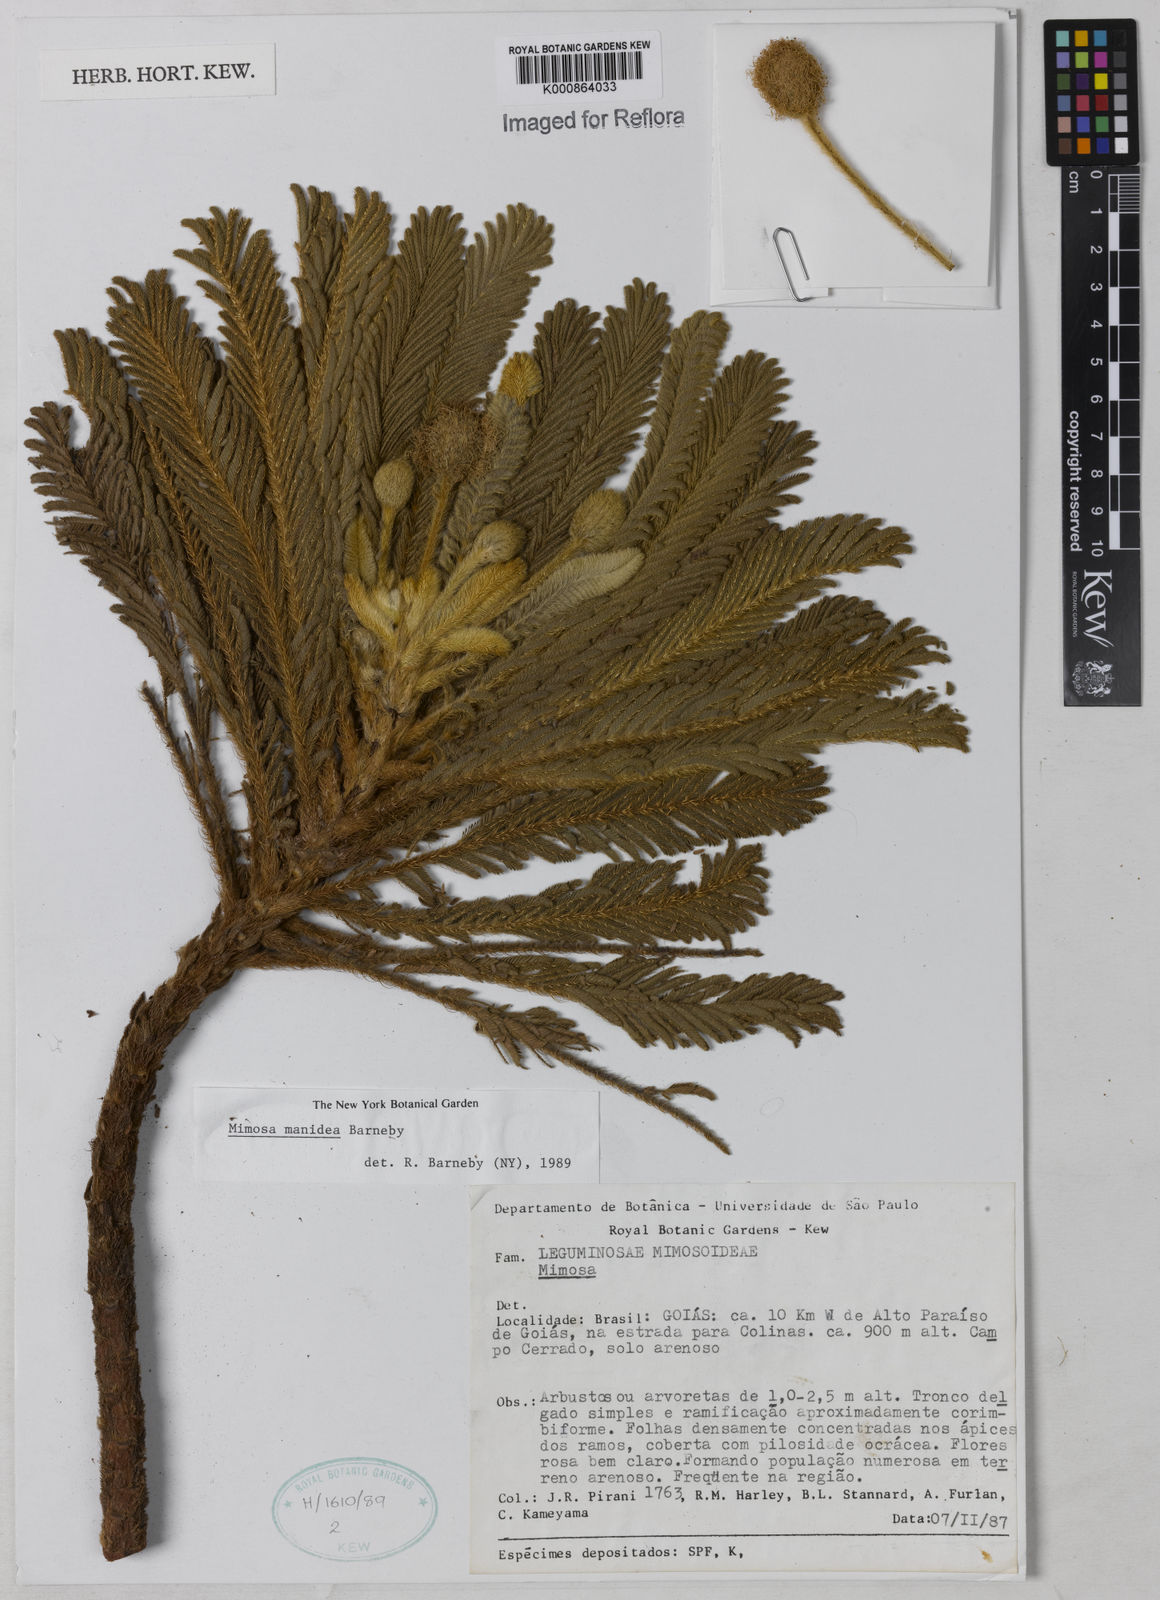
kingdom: Plantae
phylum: Tracheophyta
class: Magnoliopsida
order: Fabales
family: Fabaceae
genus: Mimosa
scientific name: Mimosa manidea
